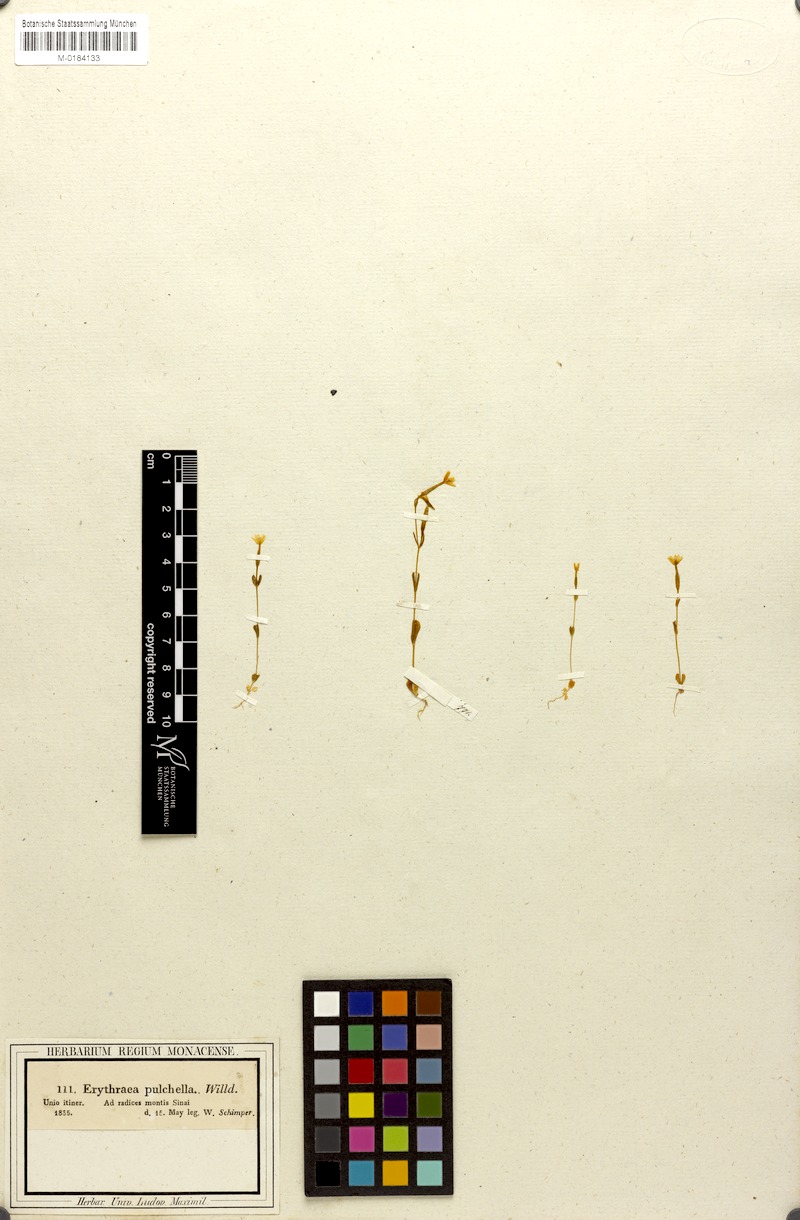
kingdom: Plantae
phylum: Tracheophyta
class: Magnoliopsida
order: Gentianales
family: Gentianaceae
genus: Centaurium
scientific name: Centaurium tenuiflorum
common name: Slender centaury
